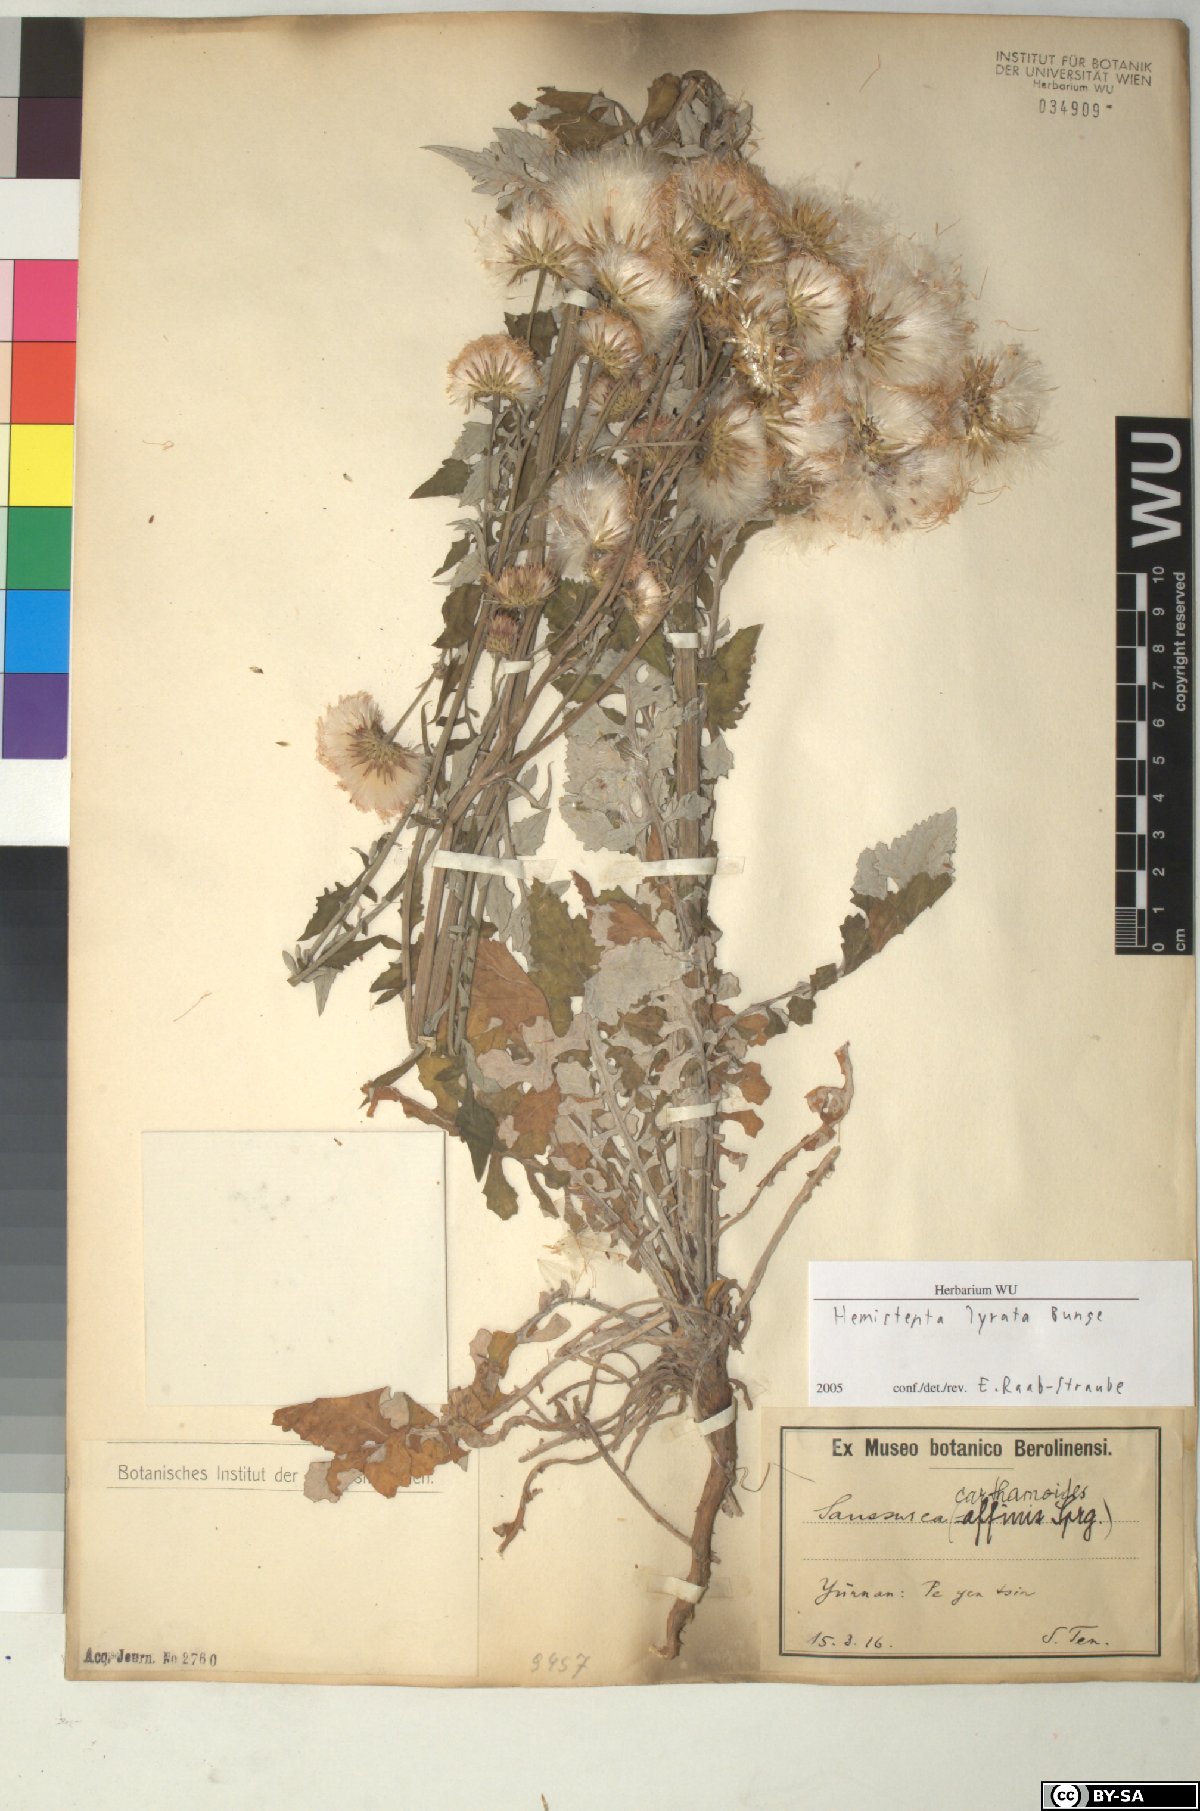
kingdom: Plantae
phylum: Tracheophyta
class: Magnoliopsida
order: Asterales
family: Asteraceae
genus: Saussurea
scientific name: Saussurea Hemisteptia lyrata
